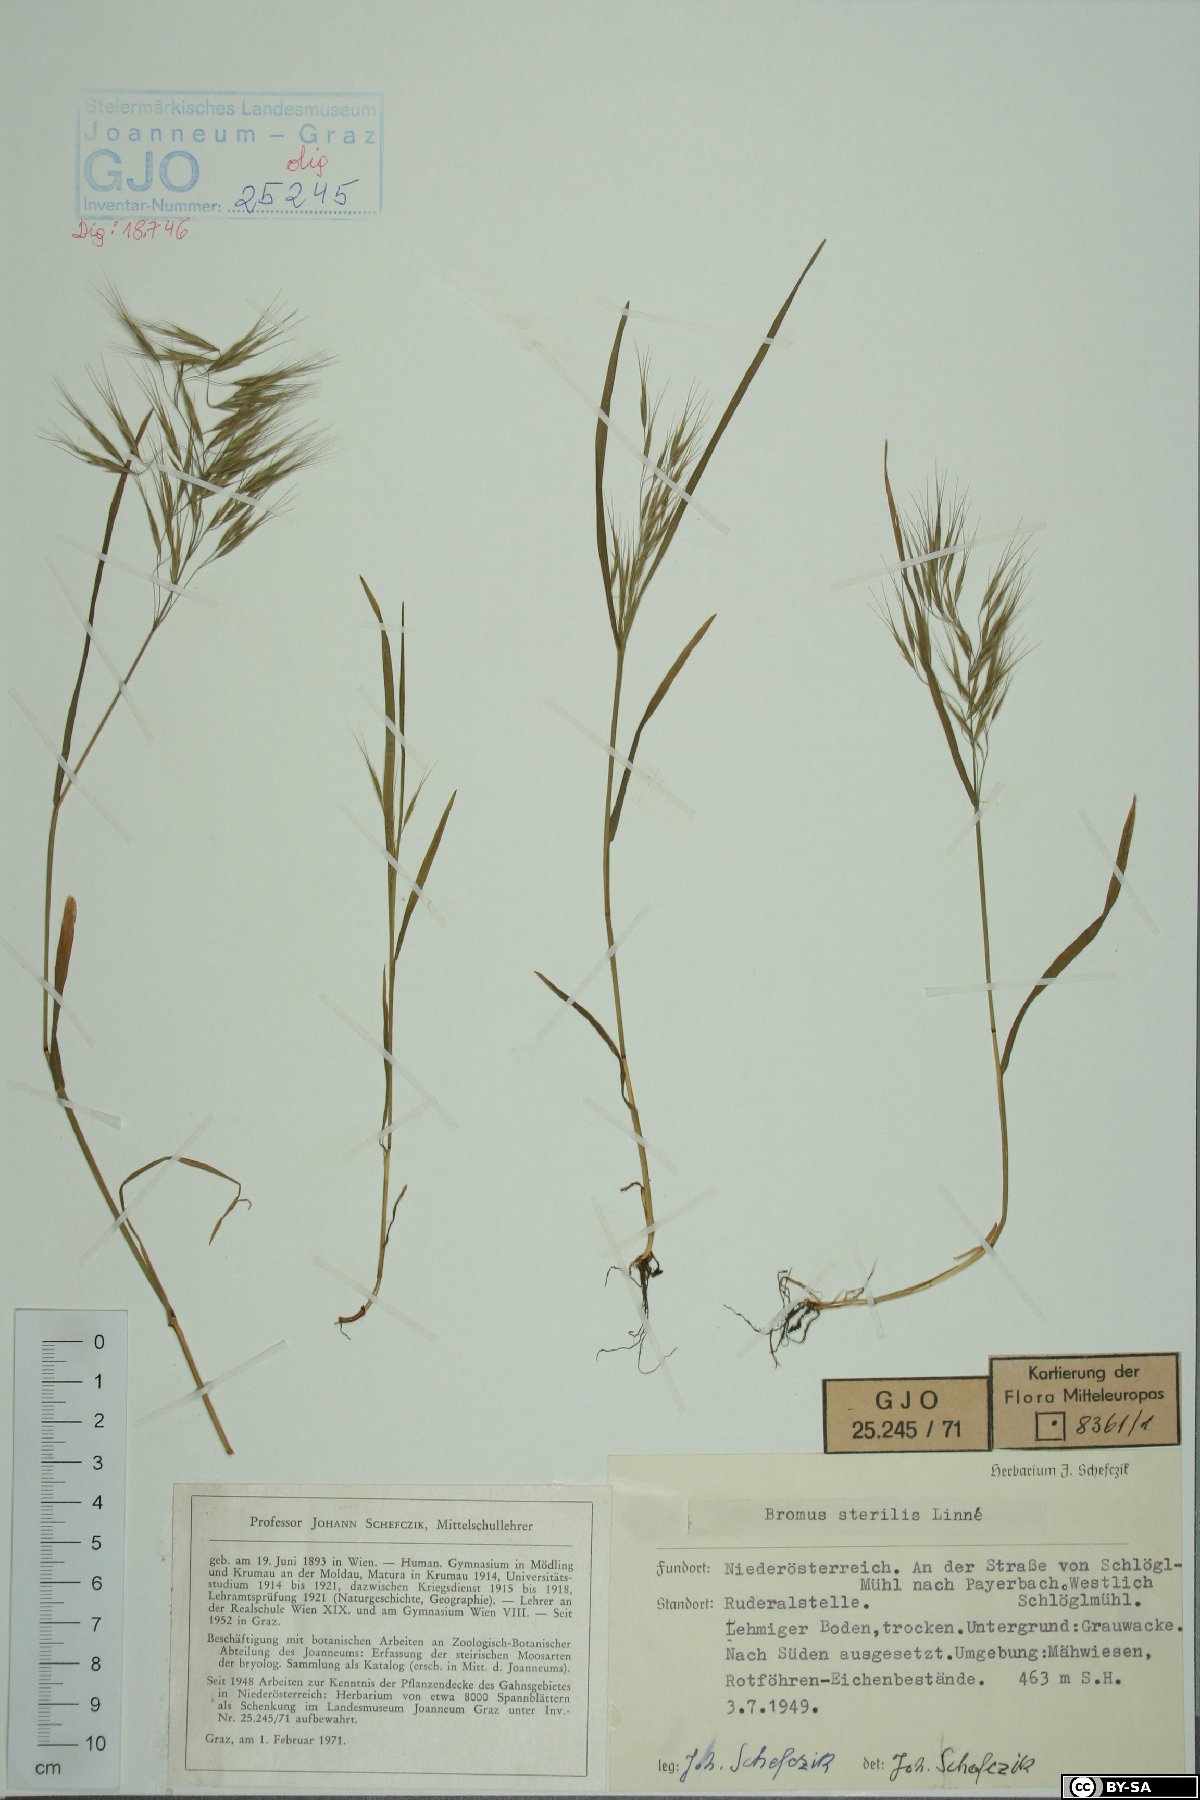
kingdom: Plantae
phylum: Tracheophyta
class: Liliopsida
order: Poales
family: Poaceae
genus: Bromus
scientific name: Bromus sterilis
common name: Poverty brome
